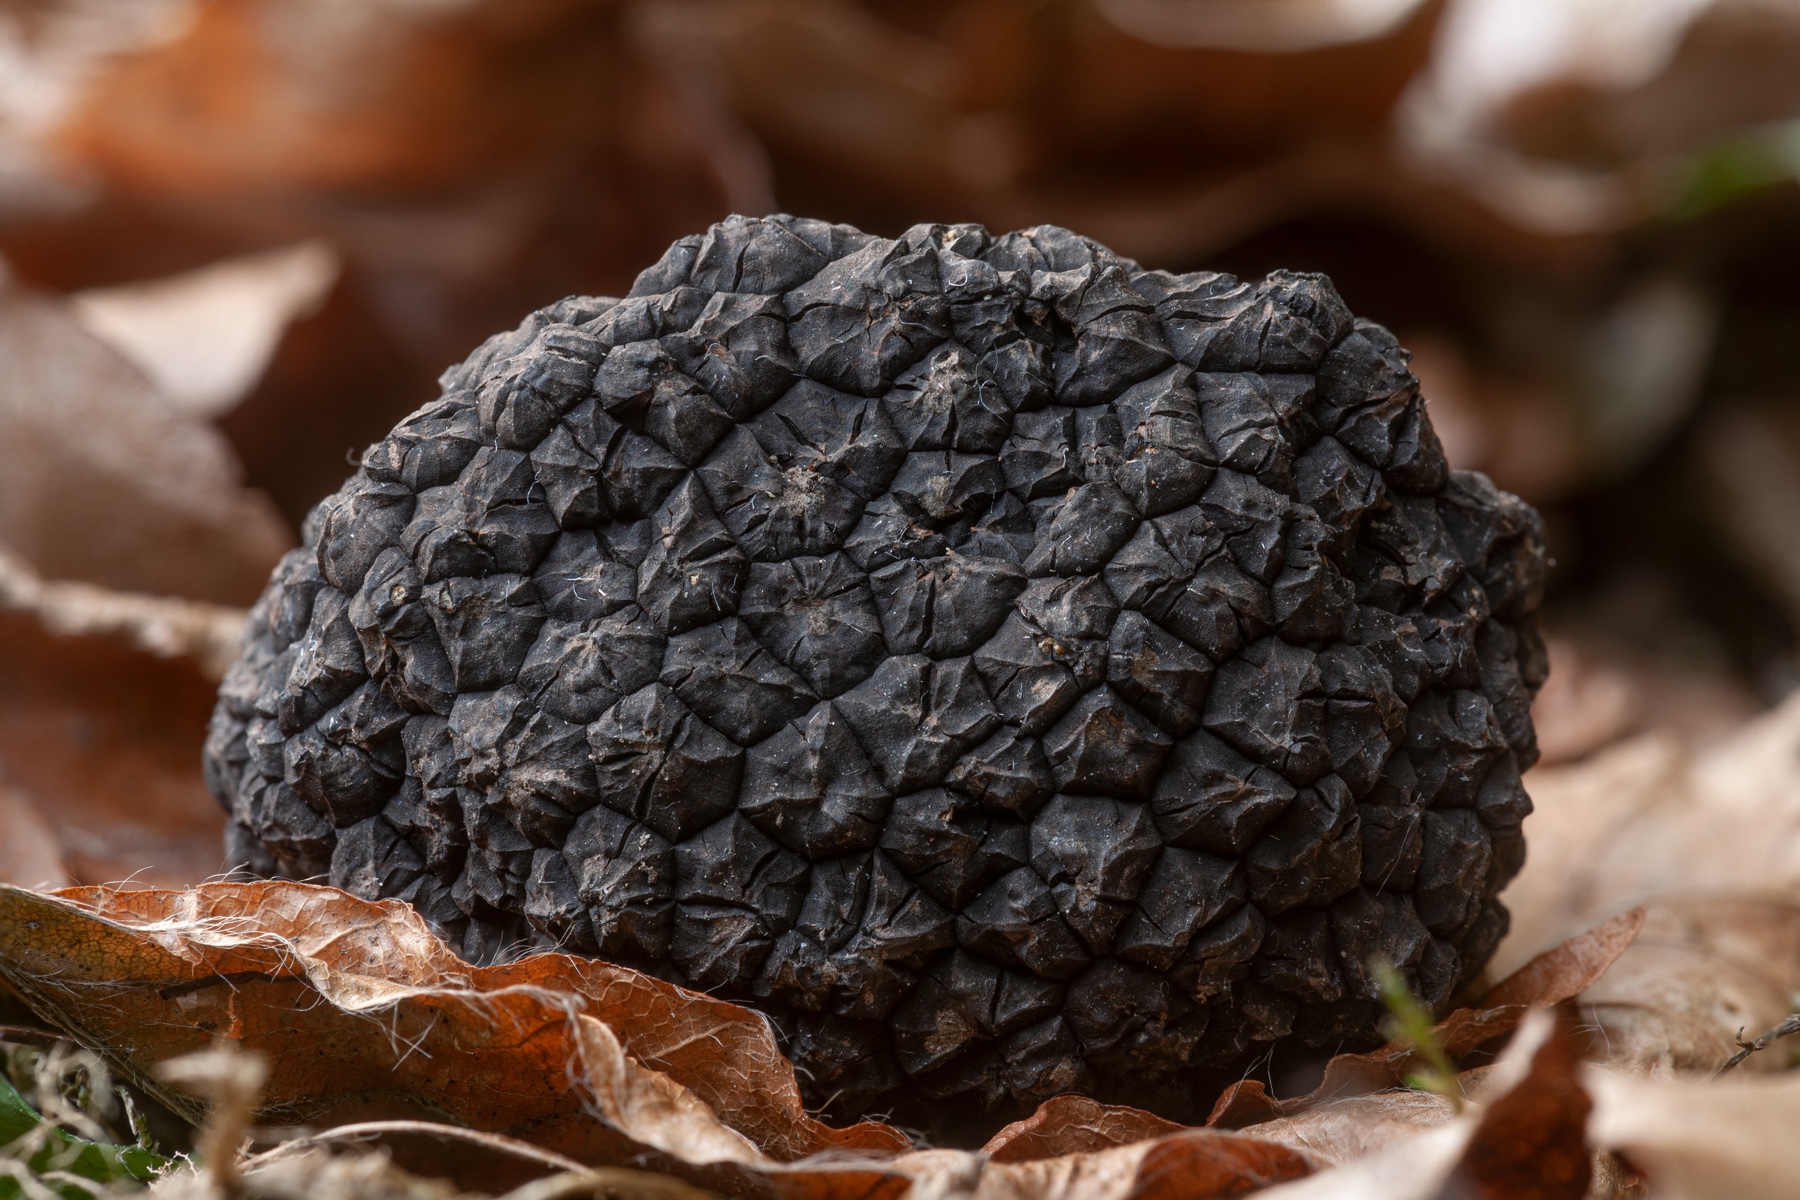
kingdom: Fungi
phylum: Ascomycota
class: Pezizomycetes
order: Pezizales
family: Tuberaceae
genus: Tuber
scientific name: Tuber aestivum
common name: sommer-trøffel
